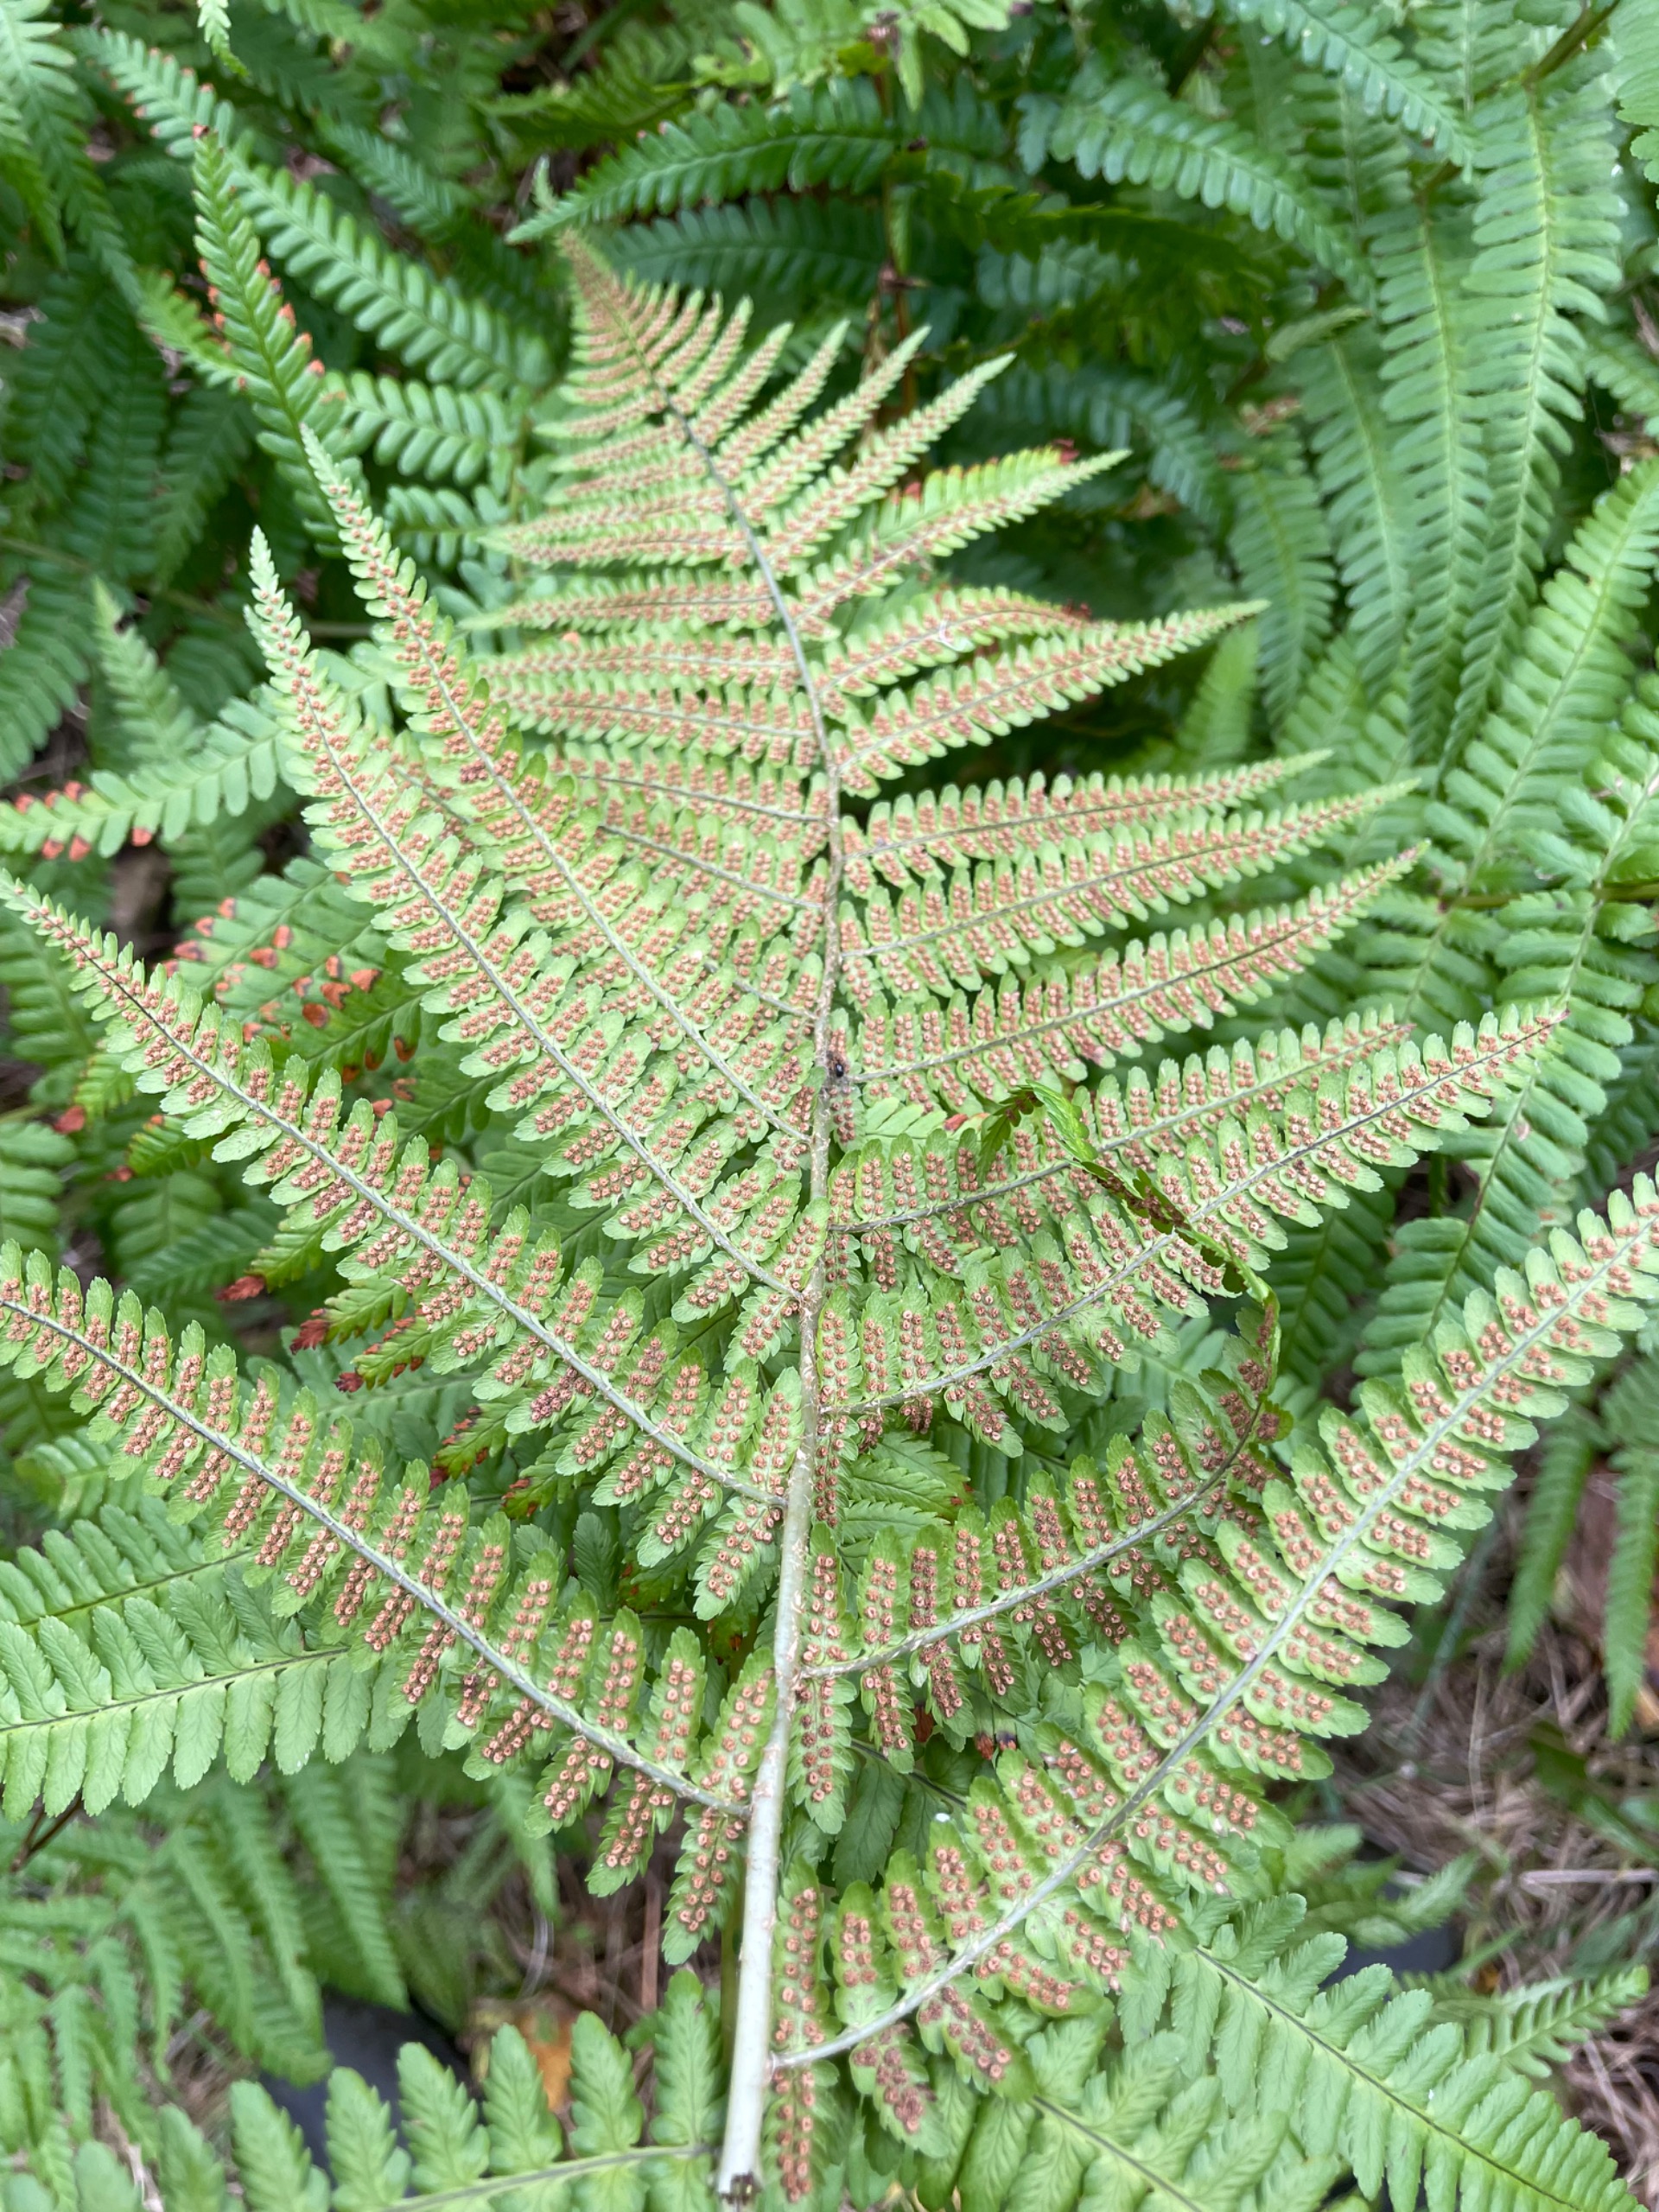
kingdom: Plantae
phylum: Tracheophyta
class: Polypodiopsida
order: Polypodiales
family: Dryopteridaceae
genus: Dryopteris
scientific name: Dryopteris filix-mas
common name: Almindelig mangeløv
